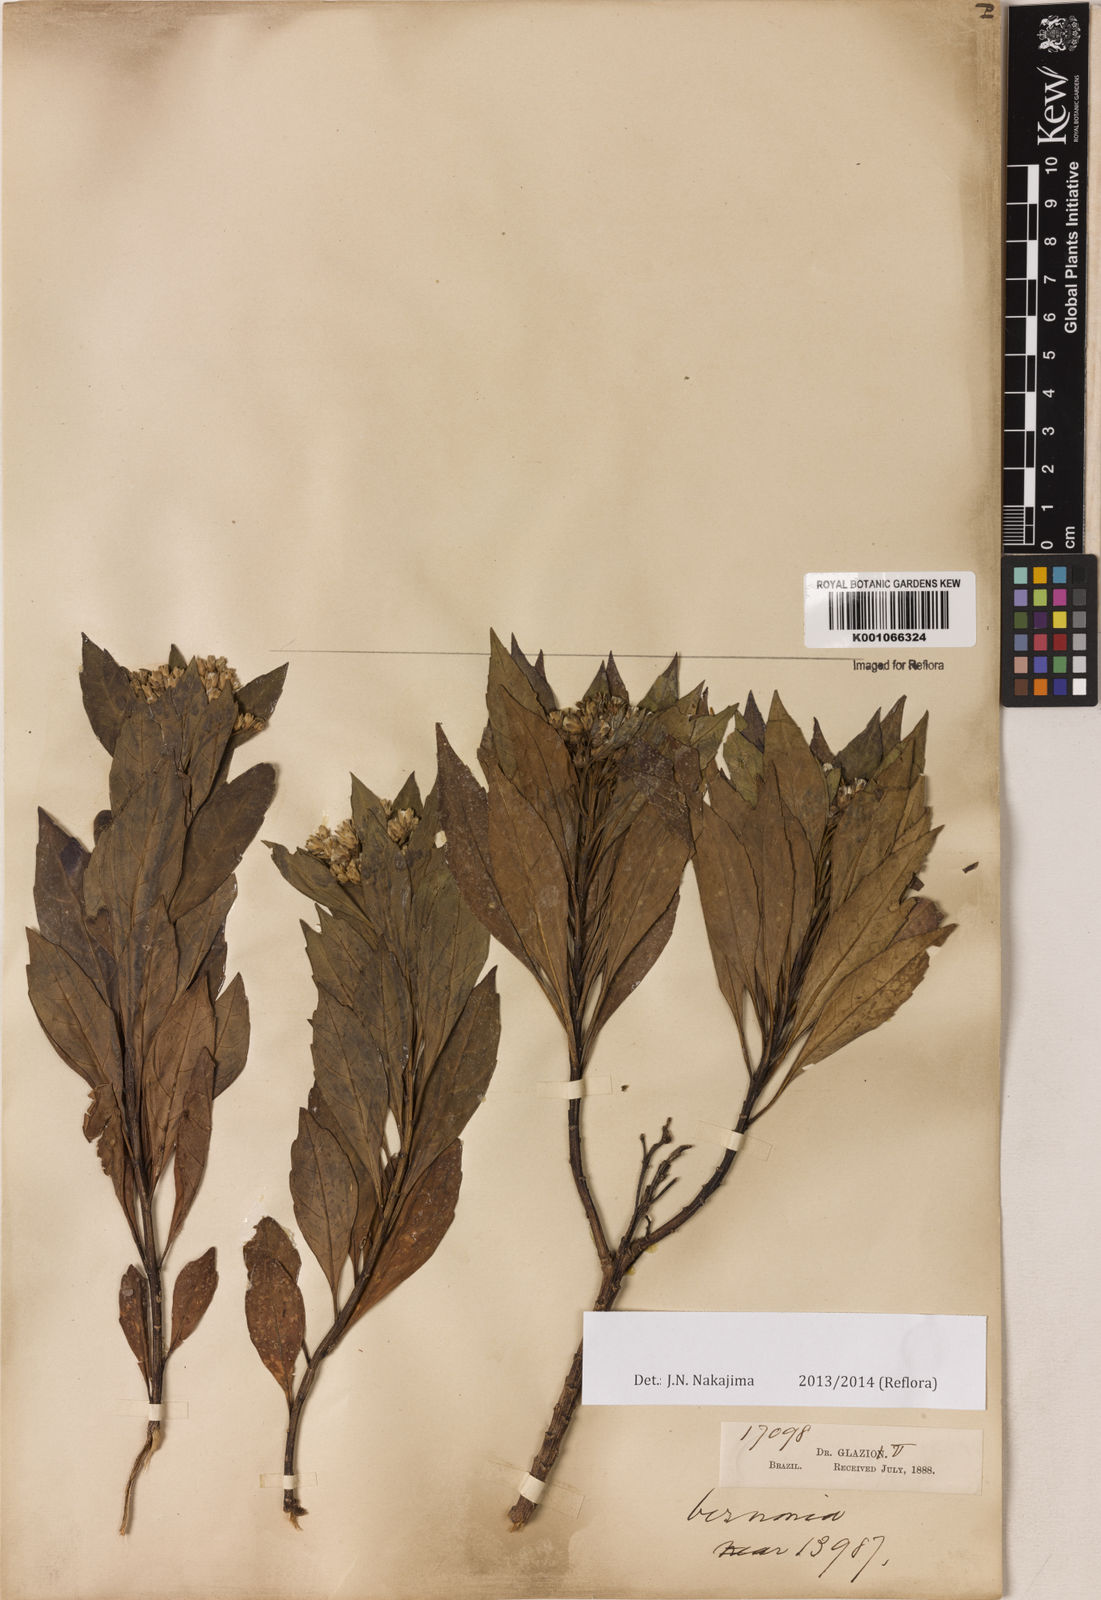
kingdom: Plantae
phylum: Tracheophyta
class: Magnoliopsida
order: Asterales
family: Asteraceae
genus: Lessingianthus
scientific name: Lessingianthus lacunosus
